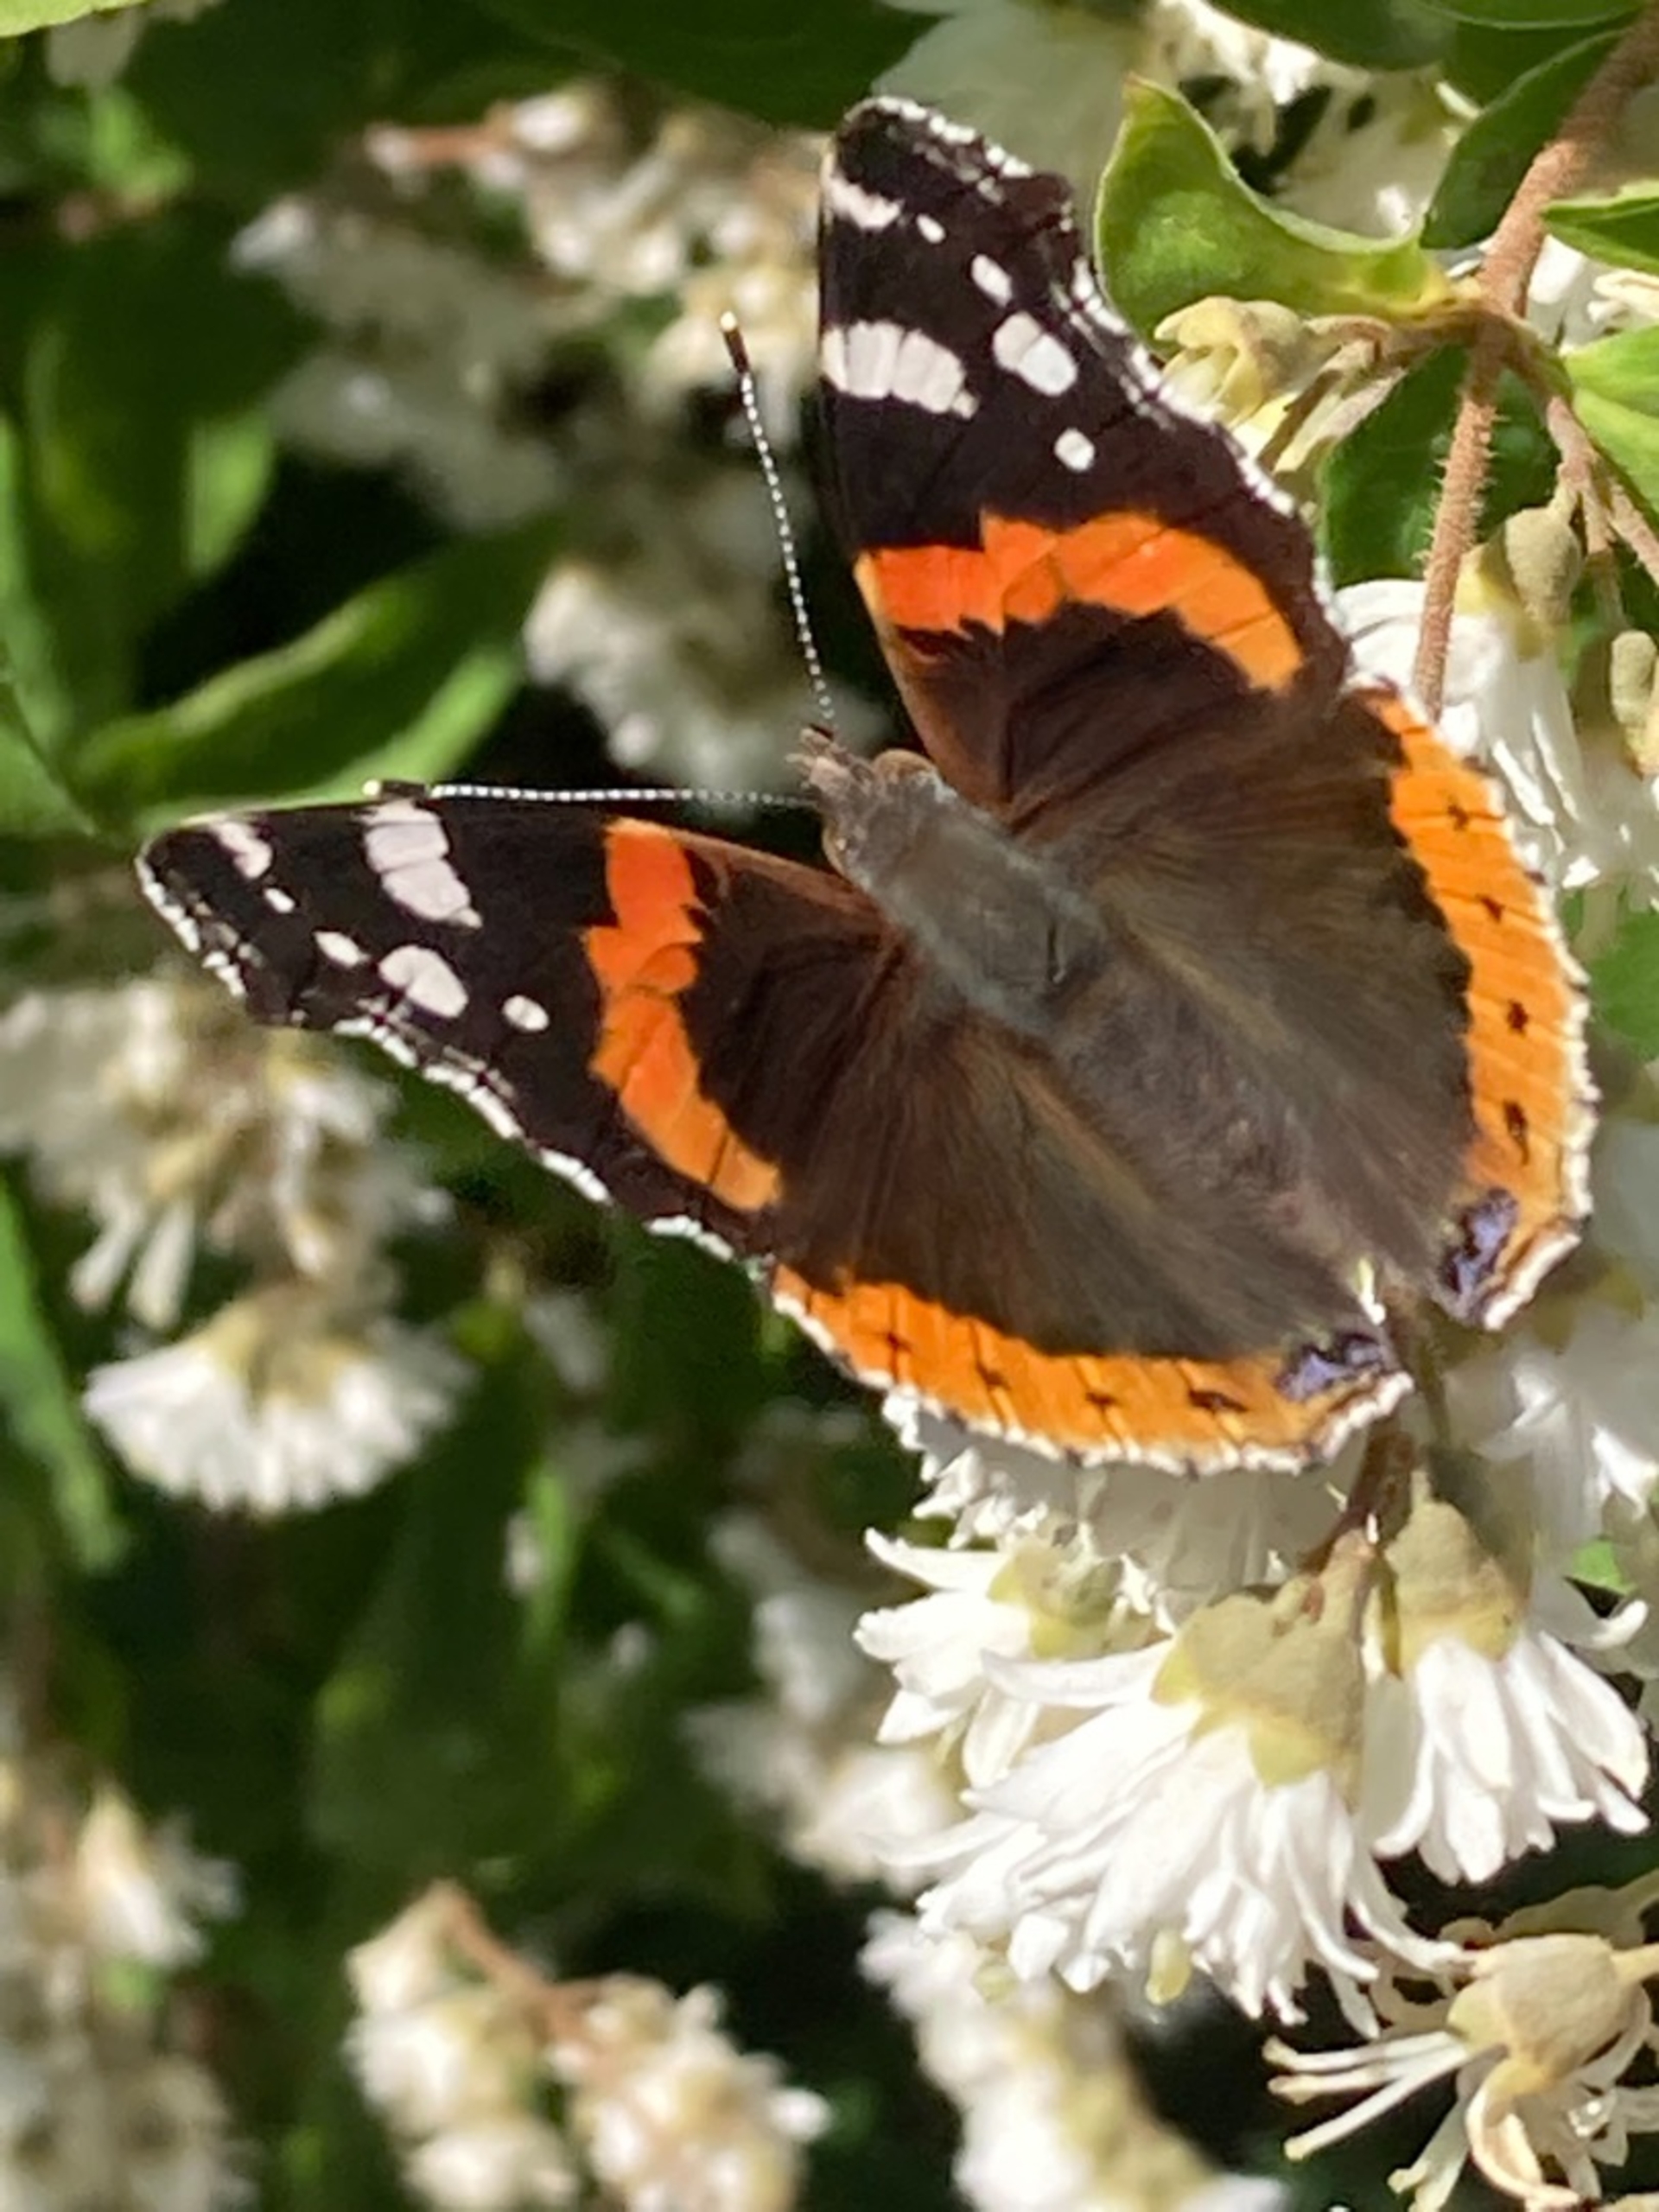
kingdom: Animalia
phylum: Arthropoda
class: Insecta
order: Lepidoptera
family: Nymphalidae
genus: Vanessa
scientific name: Vanessa atalanta
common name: Admiral
